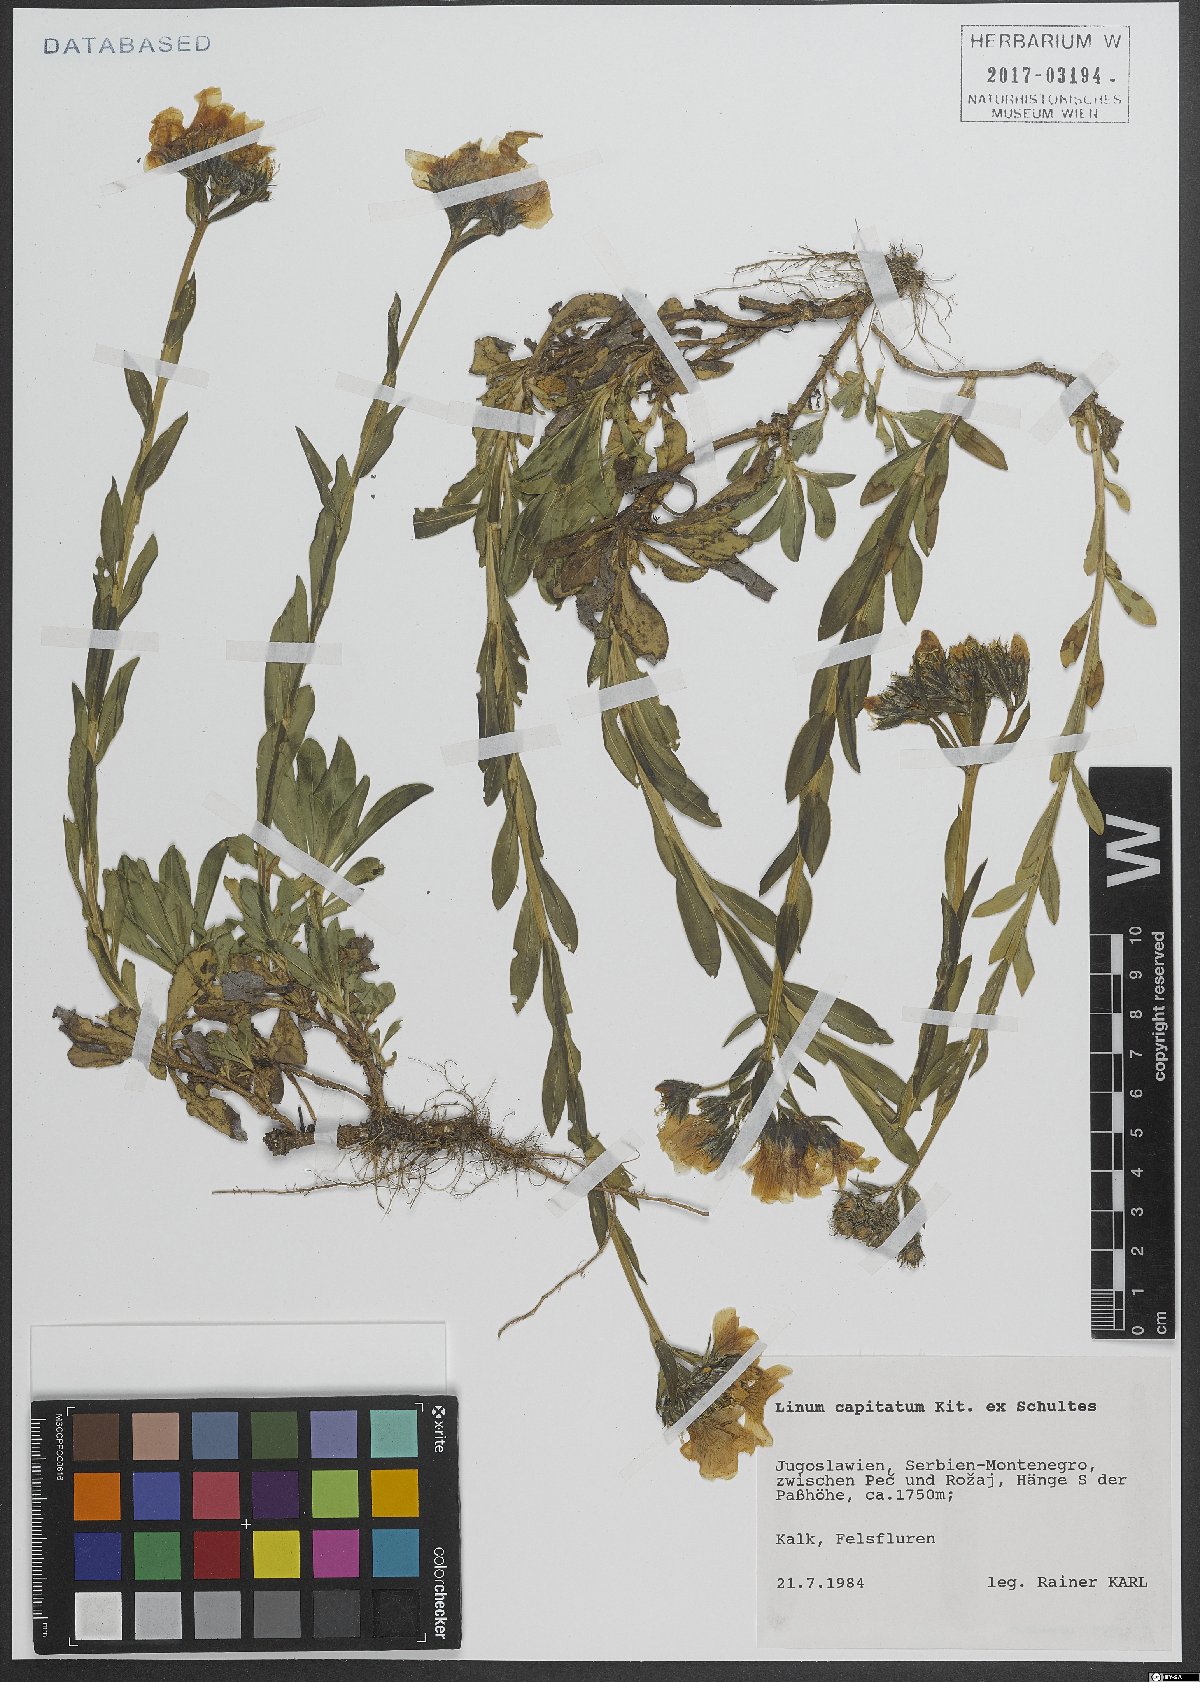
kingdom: Plantae
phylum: Tracheophyta
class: Magnoliopsida
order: Malpighiales
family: Linaceae
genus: Linum
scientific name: Linum capitatum
